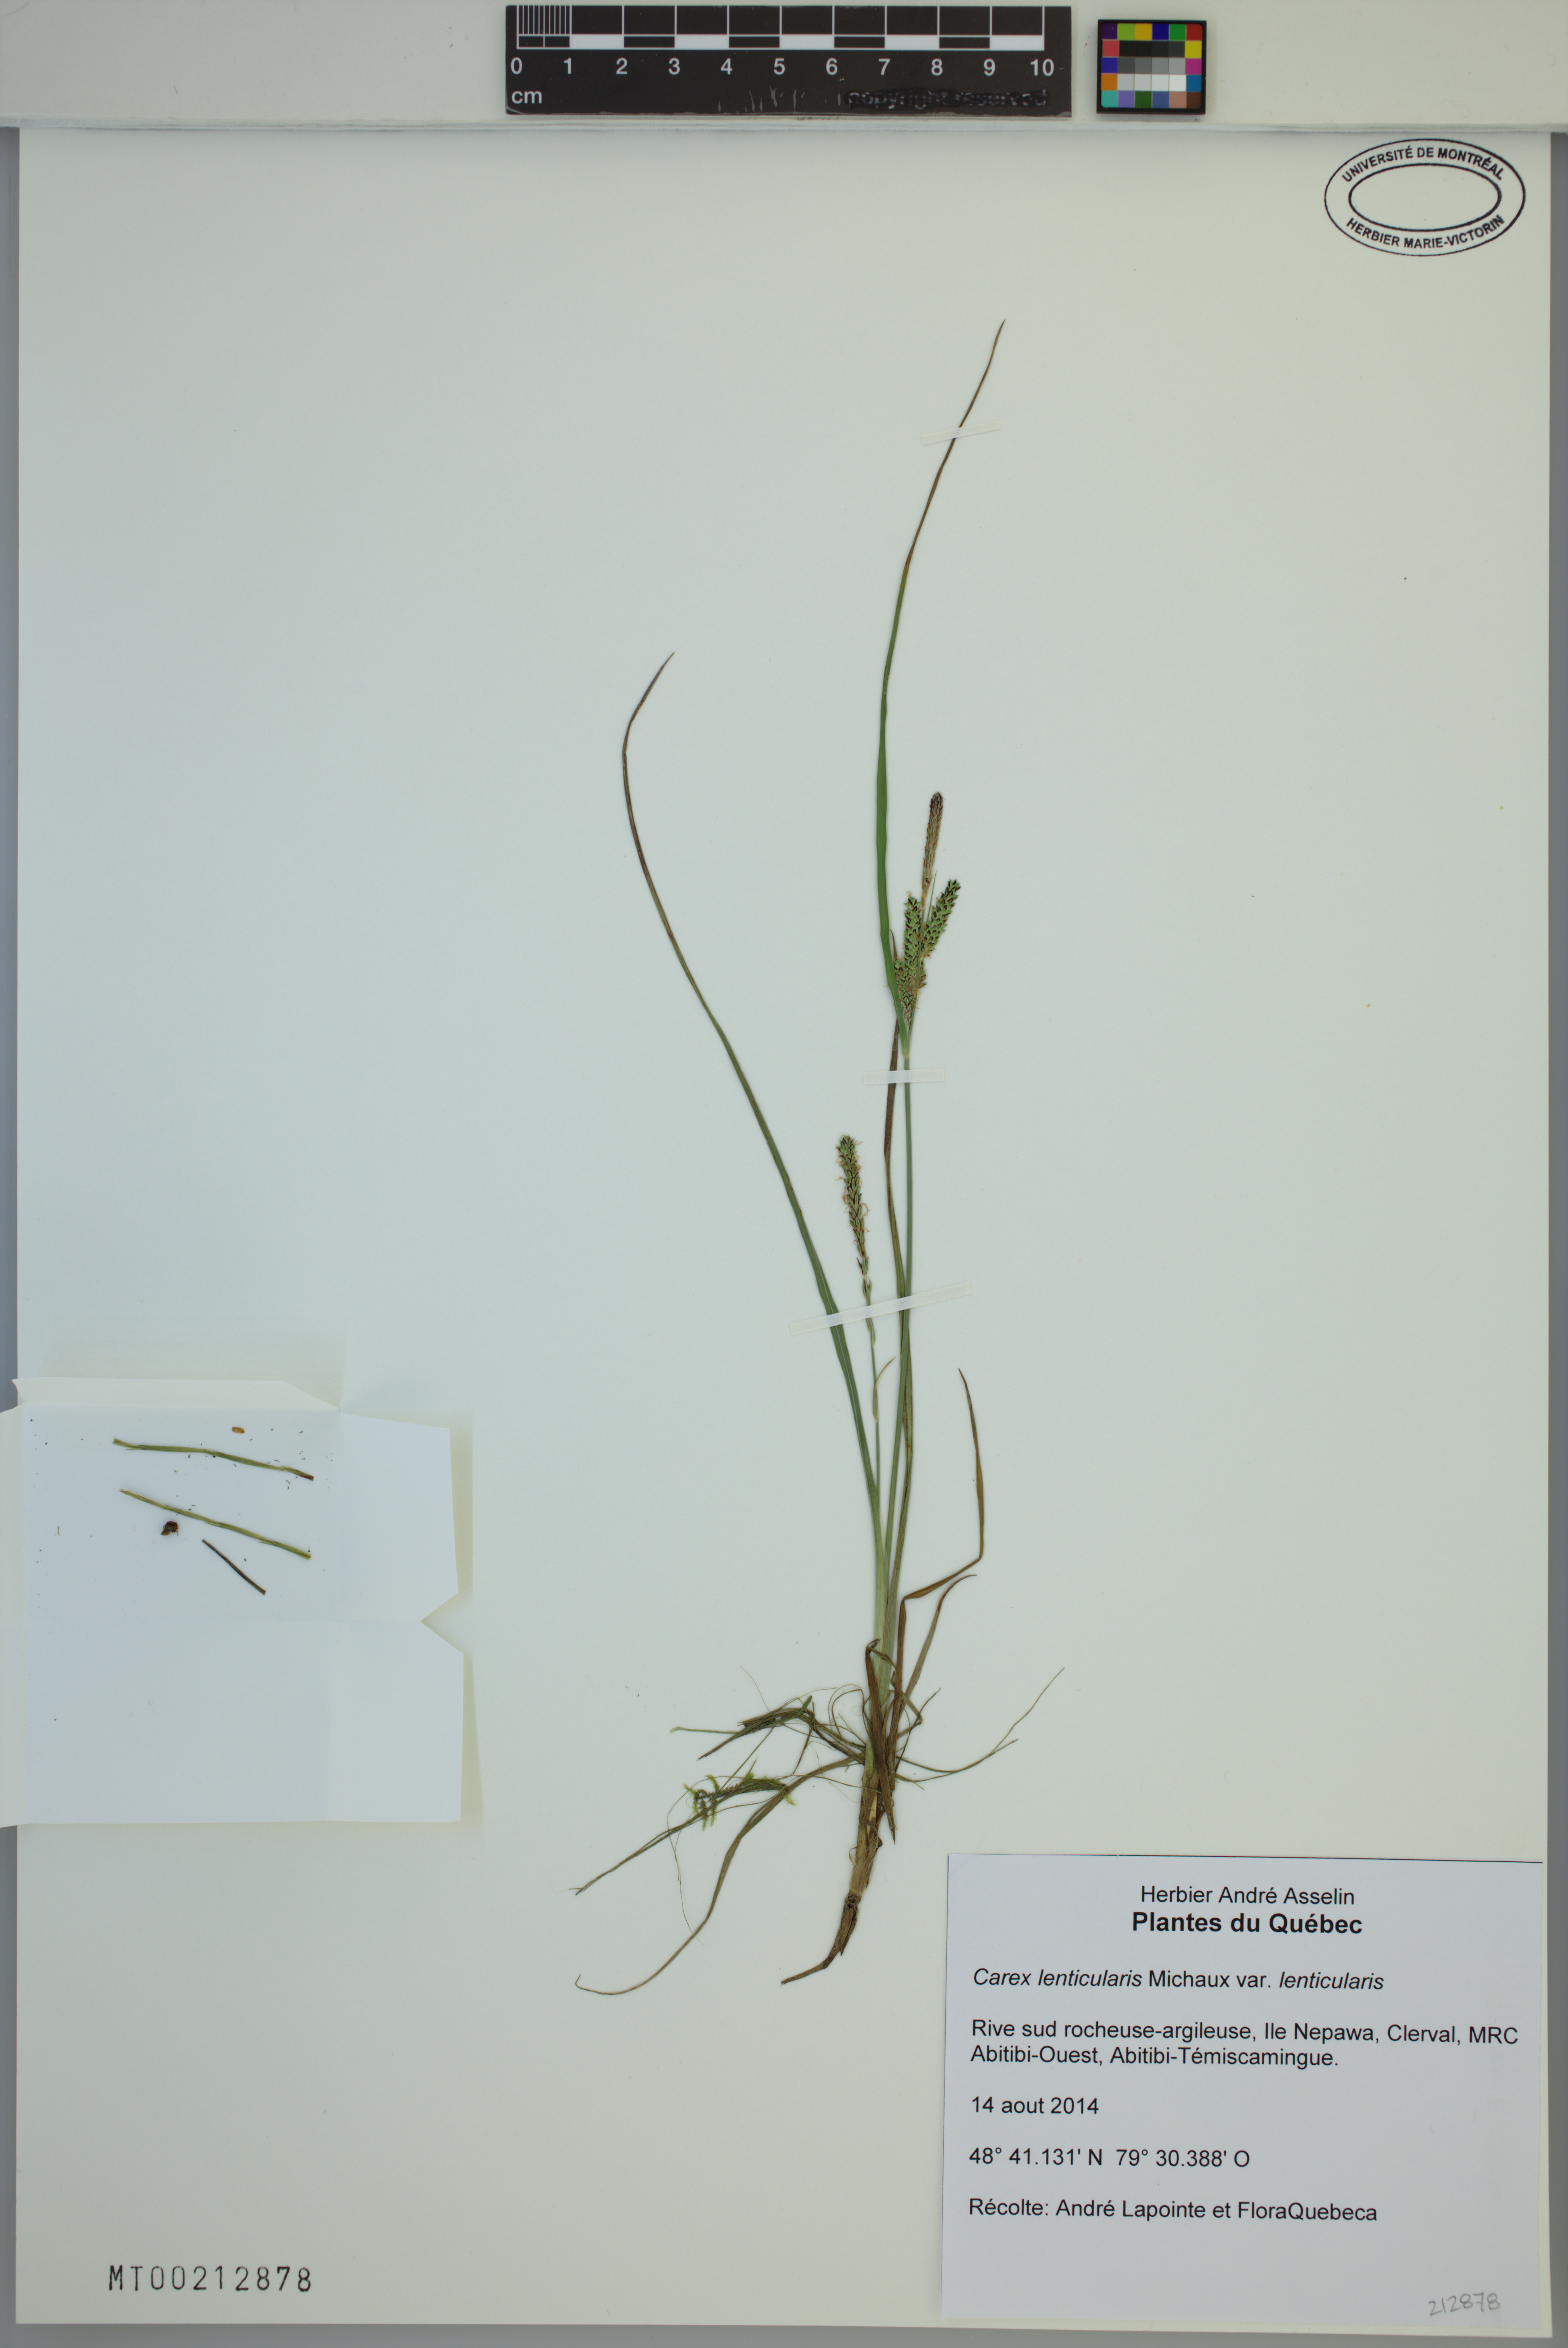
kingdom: Plantae
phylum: Tracheophyta
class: Liliopsida
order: Poales
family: Cyperaceae
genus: Carex
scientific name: Carex lenticularis
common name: Lakeshore sedge
